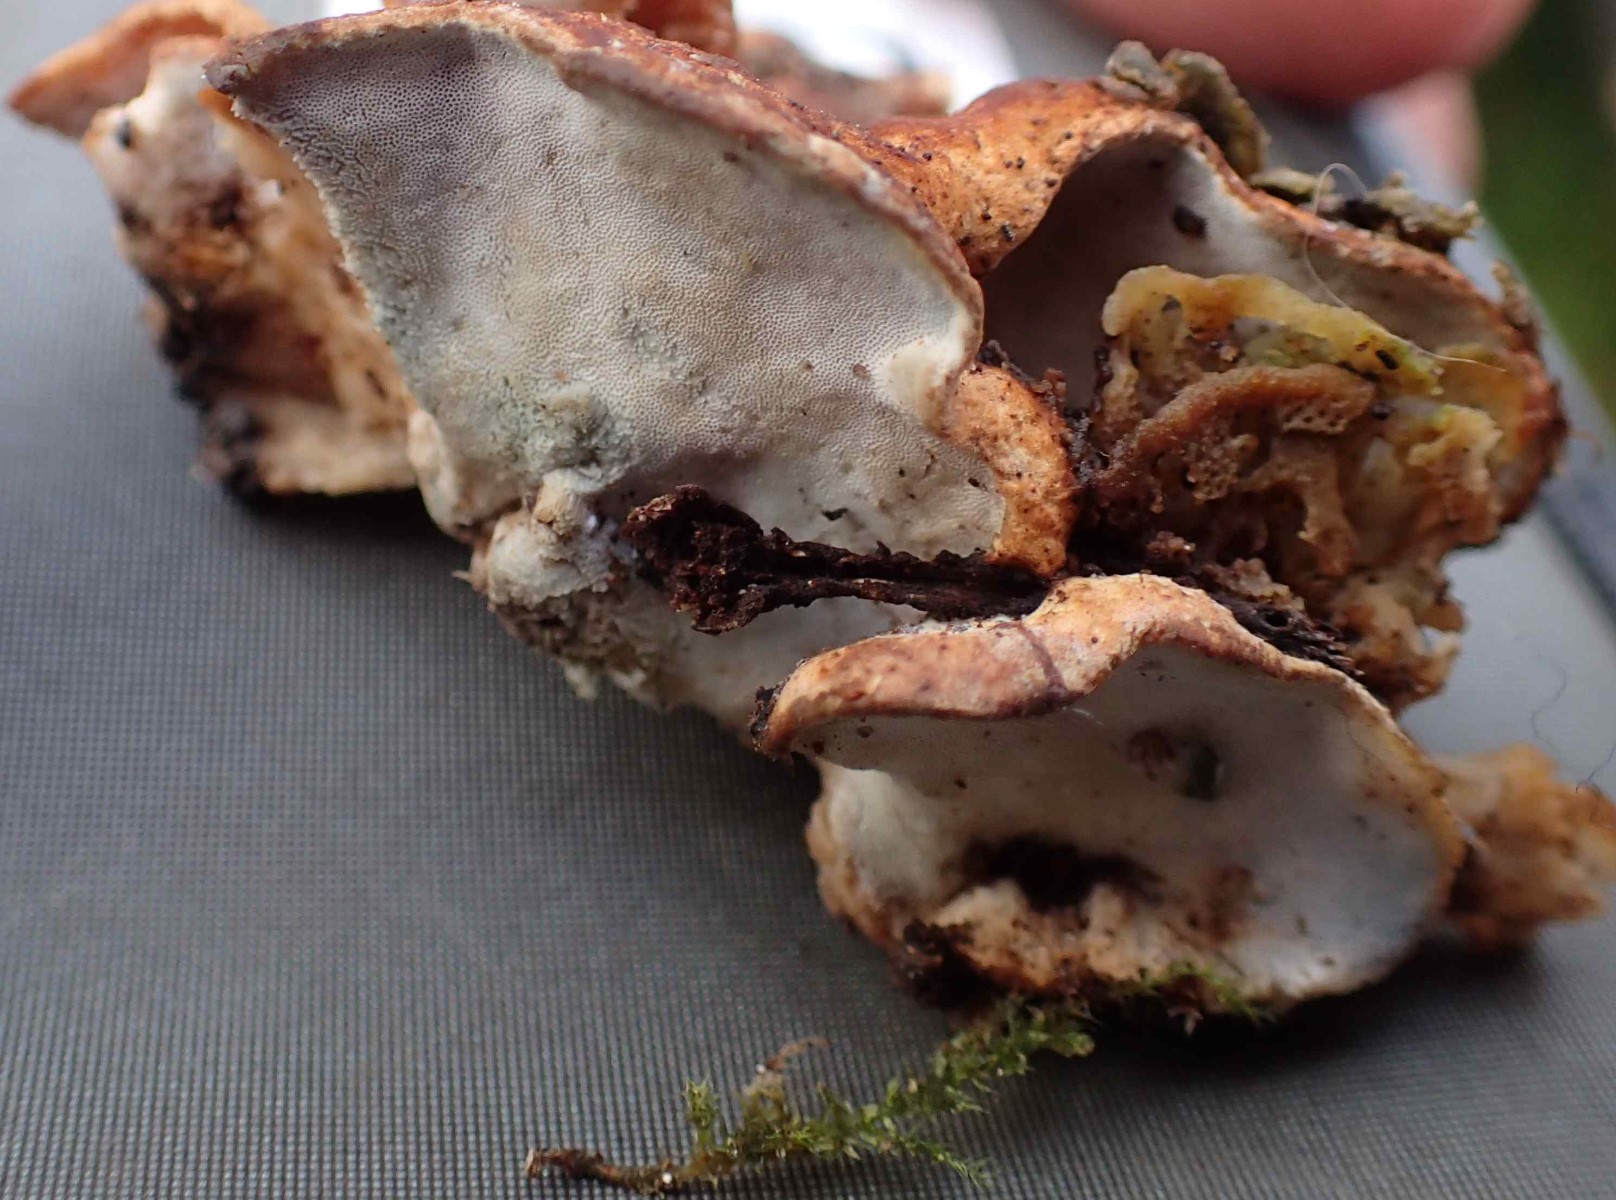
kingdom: Fungi
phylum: Basidiomycota
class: Agaricomycetes
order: Polyporales
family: Incrustoporiaceae
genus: Skeletocutis
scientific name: Skeletocutis nemoralis
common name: stor krystalporesvamp
